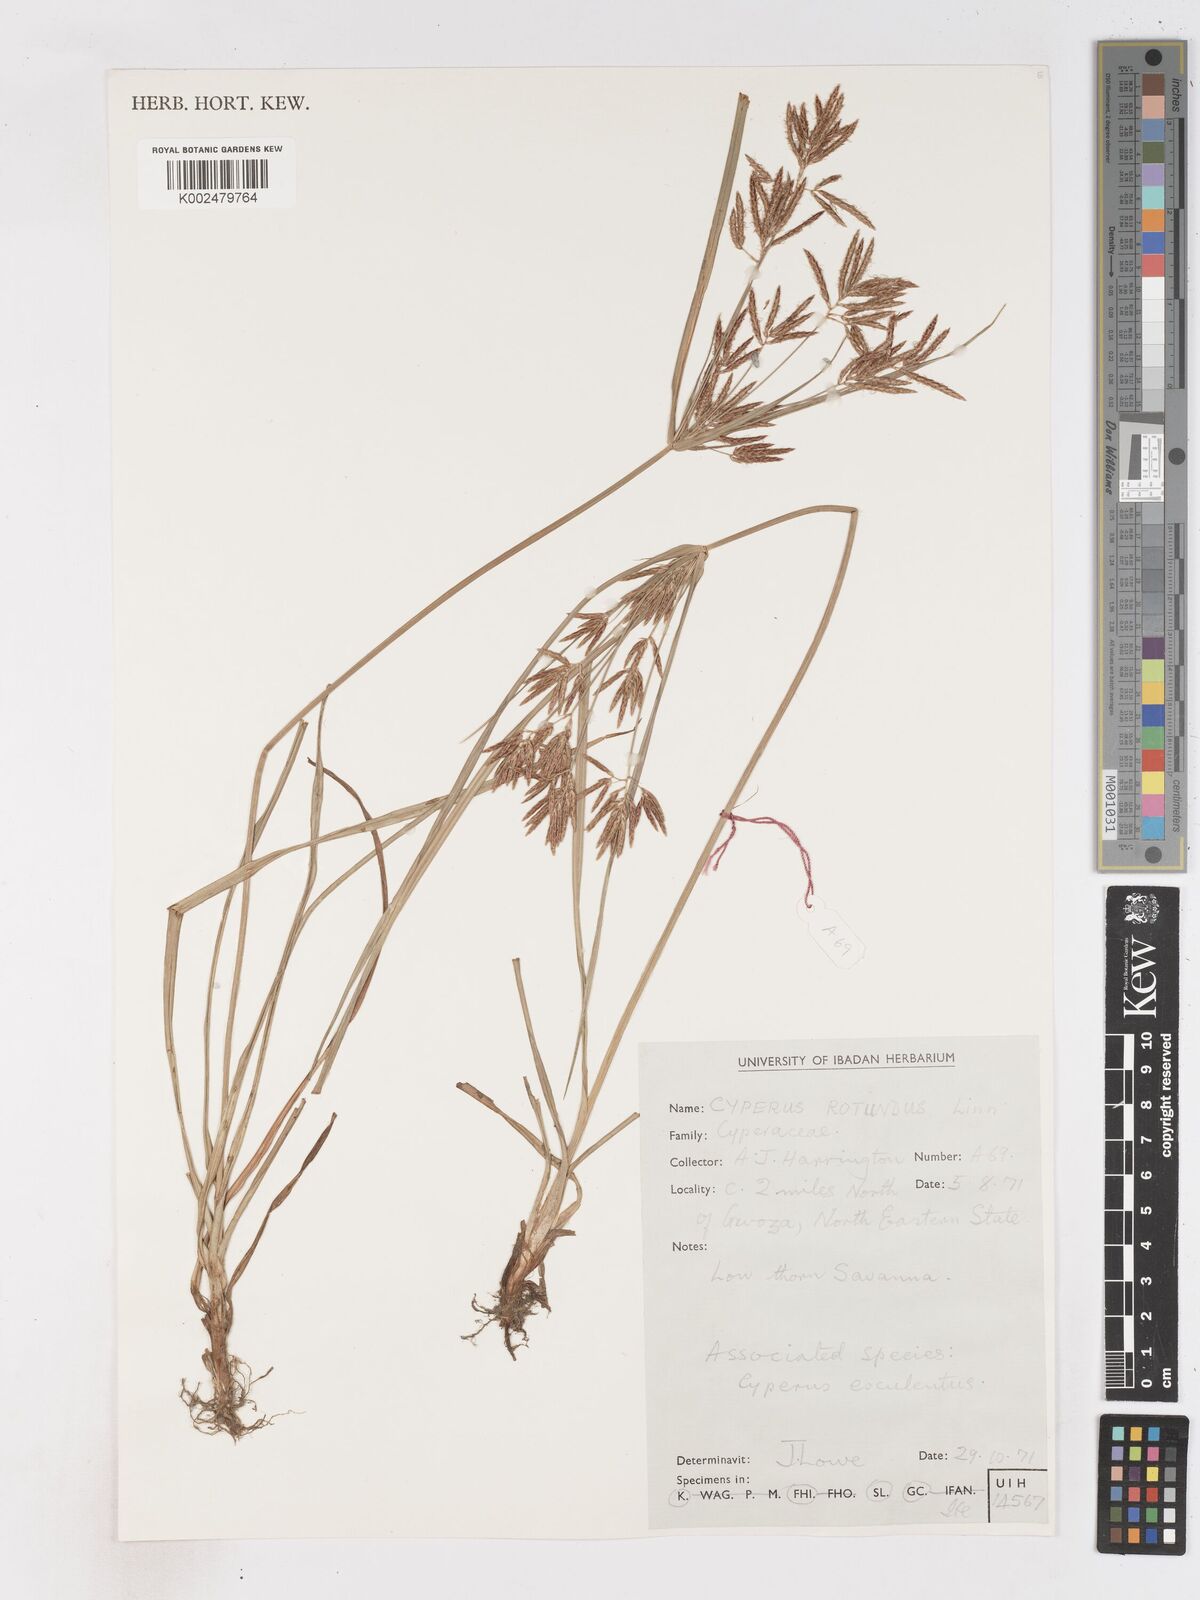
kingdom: Plantae
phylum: Tracheophyta
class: Liliopsida
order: Poales
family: Cyperaceae
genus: Cyperus
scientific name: Cyperus rotundus
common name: Nutgrass
